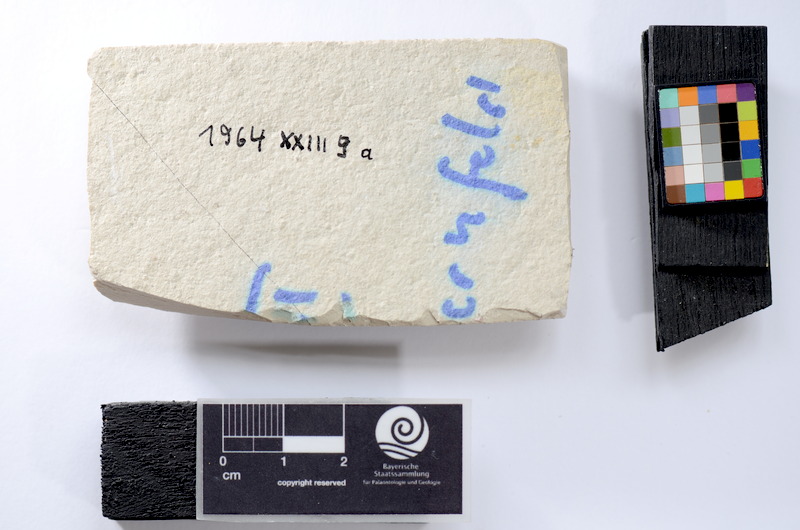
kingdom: Animalia
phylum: Chordata
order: Salmoniformes
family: Orthogonikleithridae
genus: Leptolepides
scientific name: Leptolepides sprattiformis
